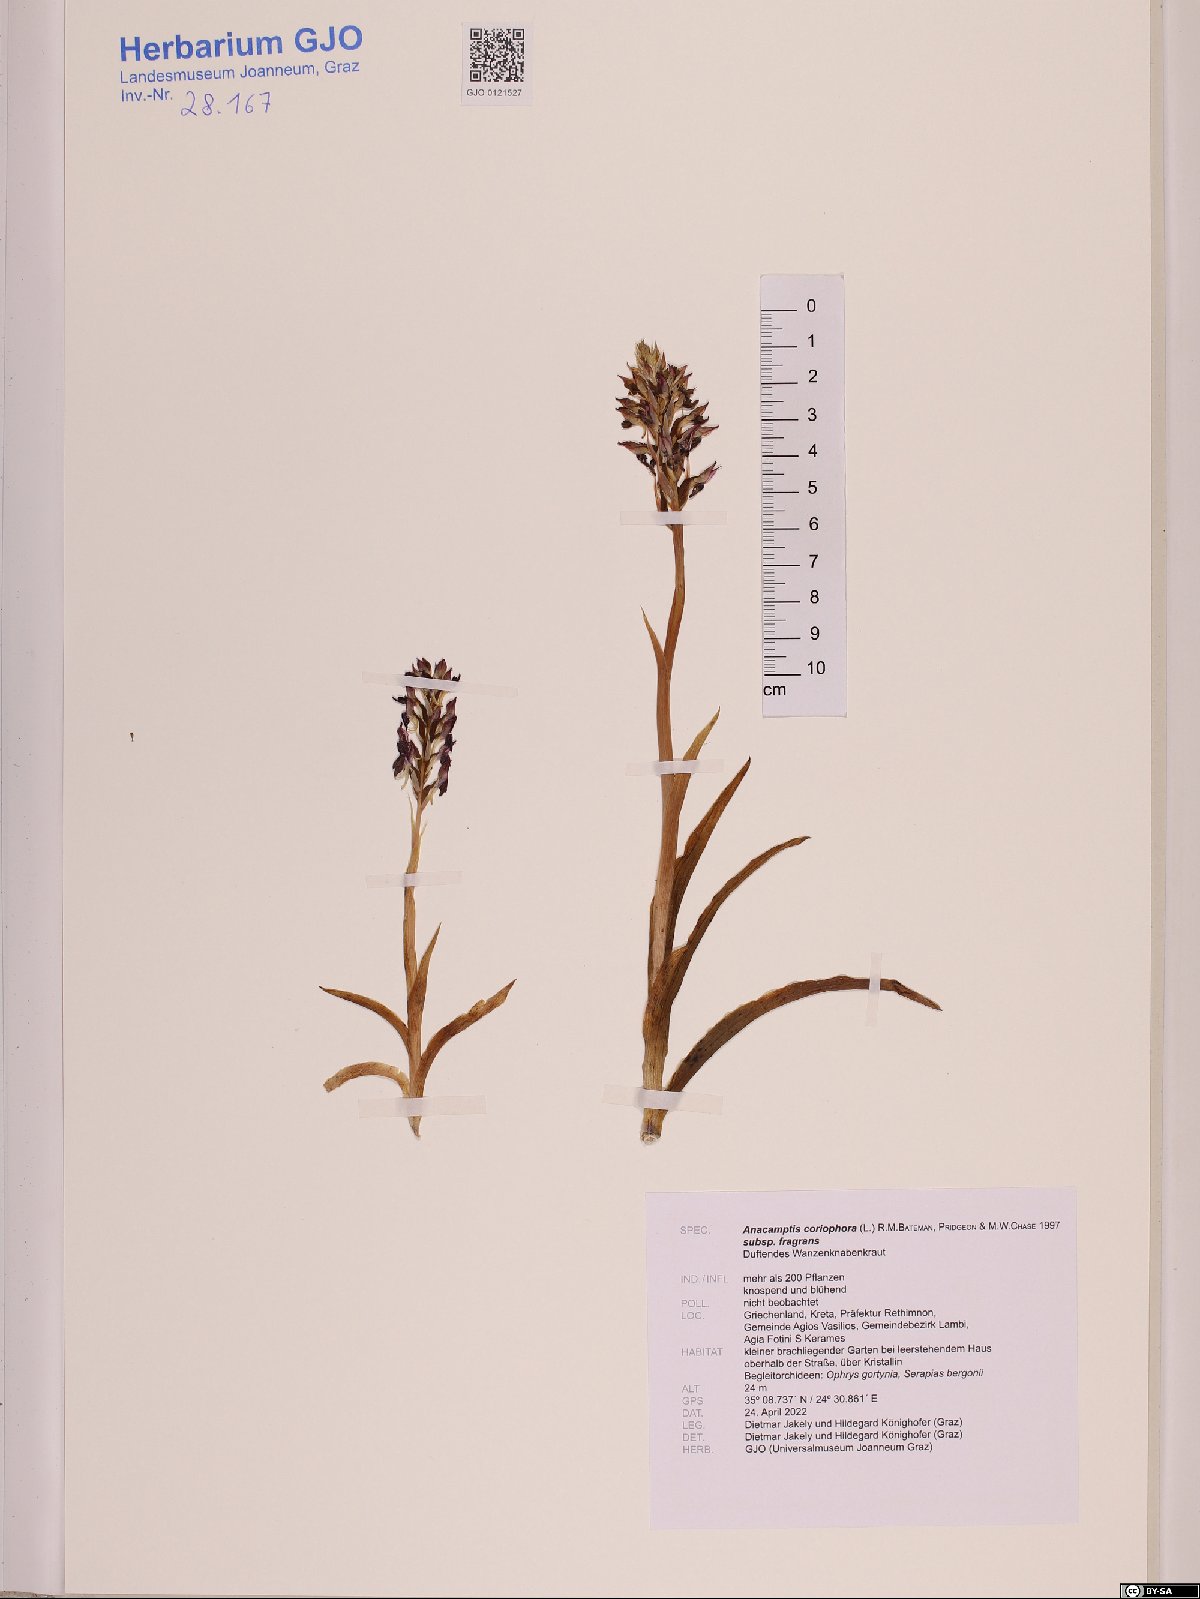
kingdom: Plantae
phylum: Tracheophyta
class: Liliopsida
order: Asparagales
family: Orchidaceae
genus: Anacamptis
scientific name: Anacamptis coriophora
